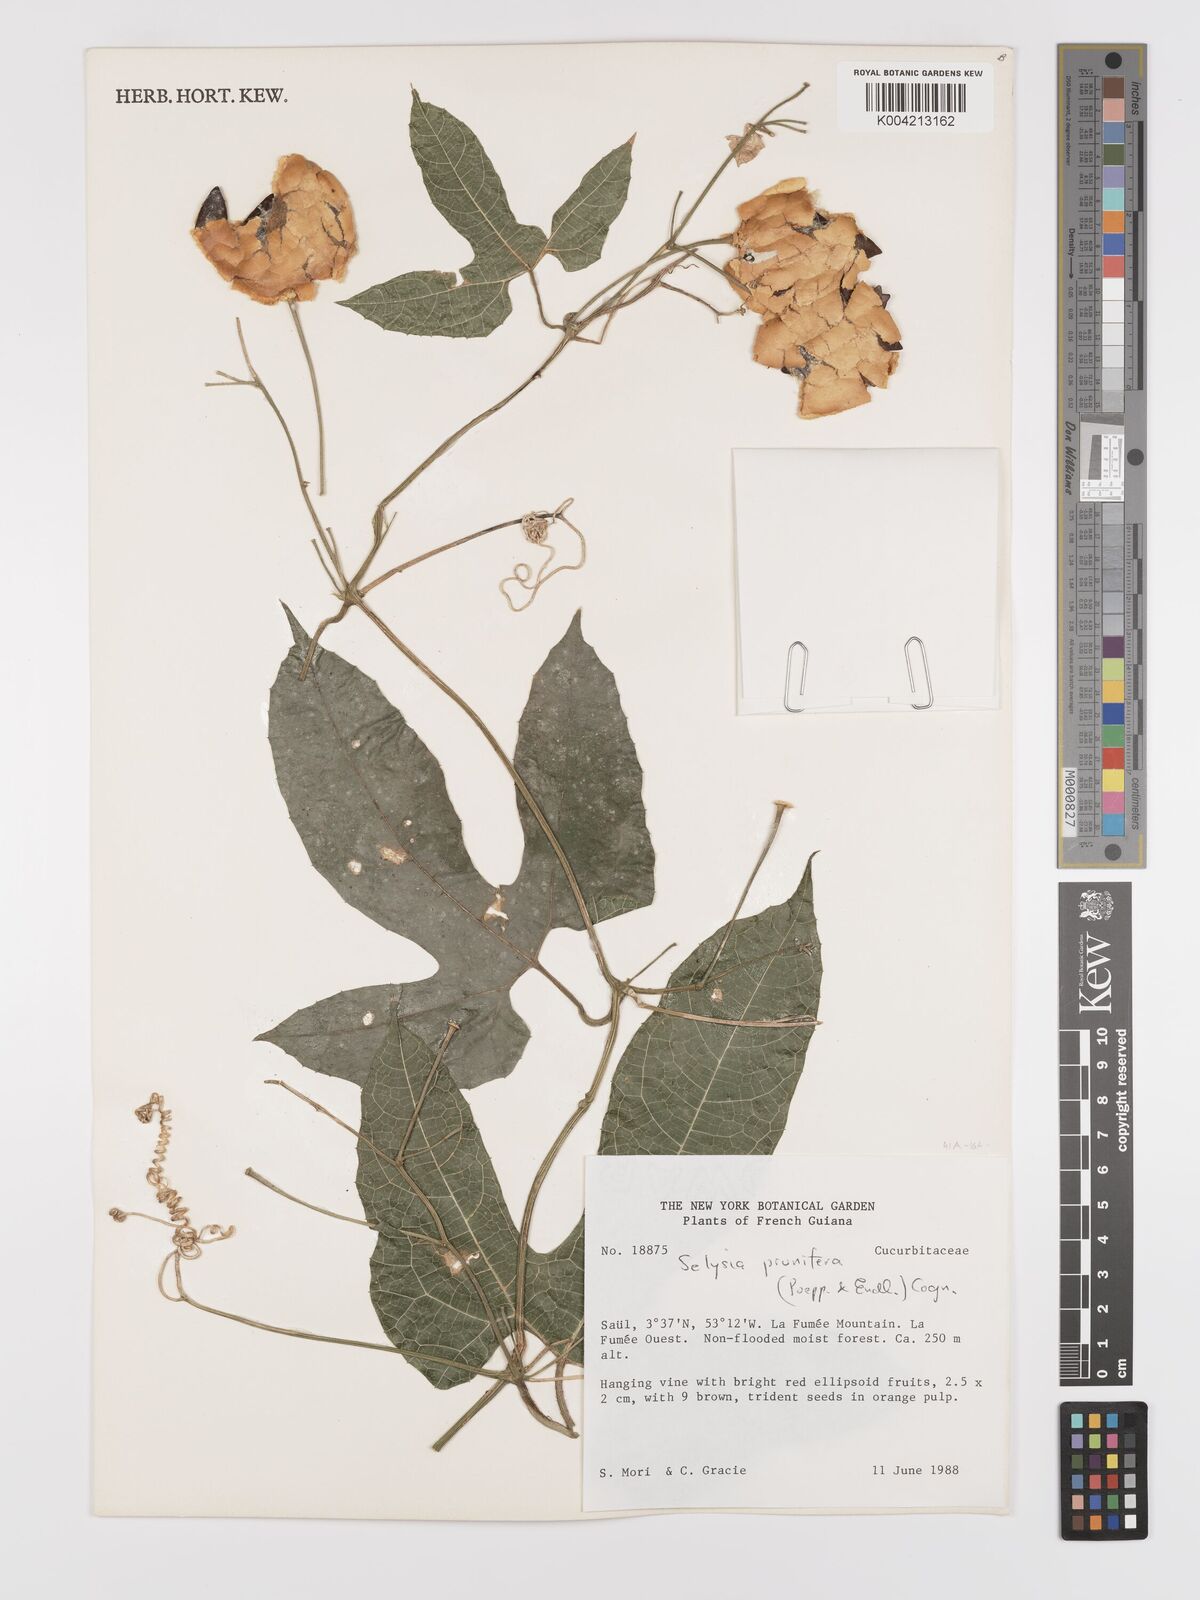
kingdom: Plantae
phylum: Tracheophyta
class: Magnoliopsida
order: Cucurbitales
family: Cucurbitaceae
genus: Cayaponia
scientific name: Cayaponia prunifera
